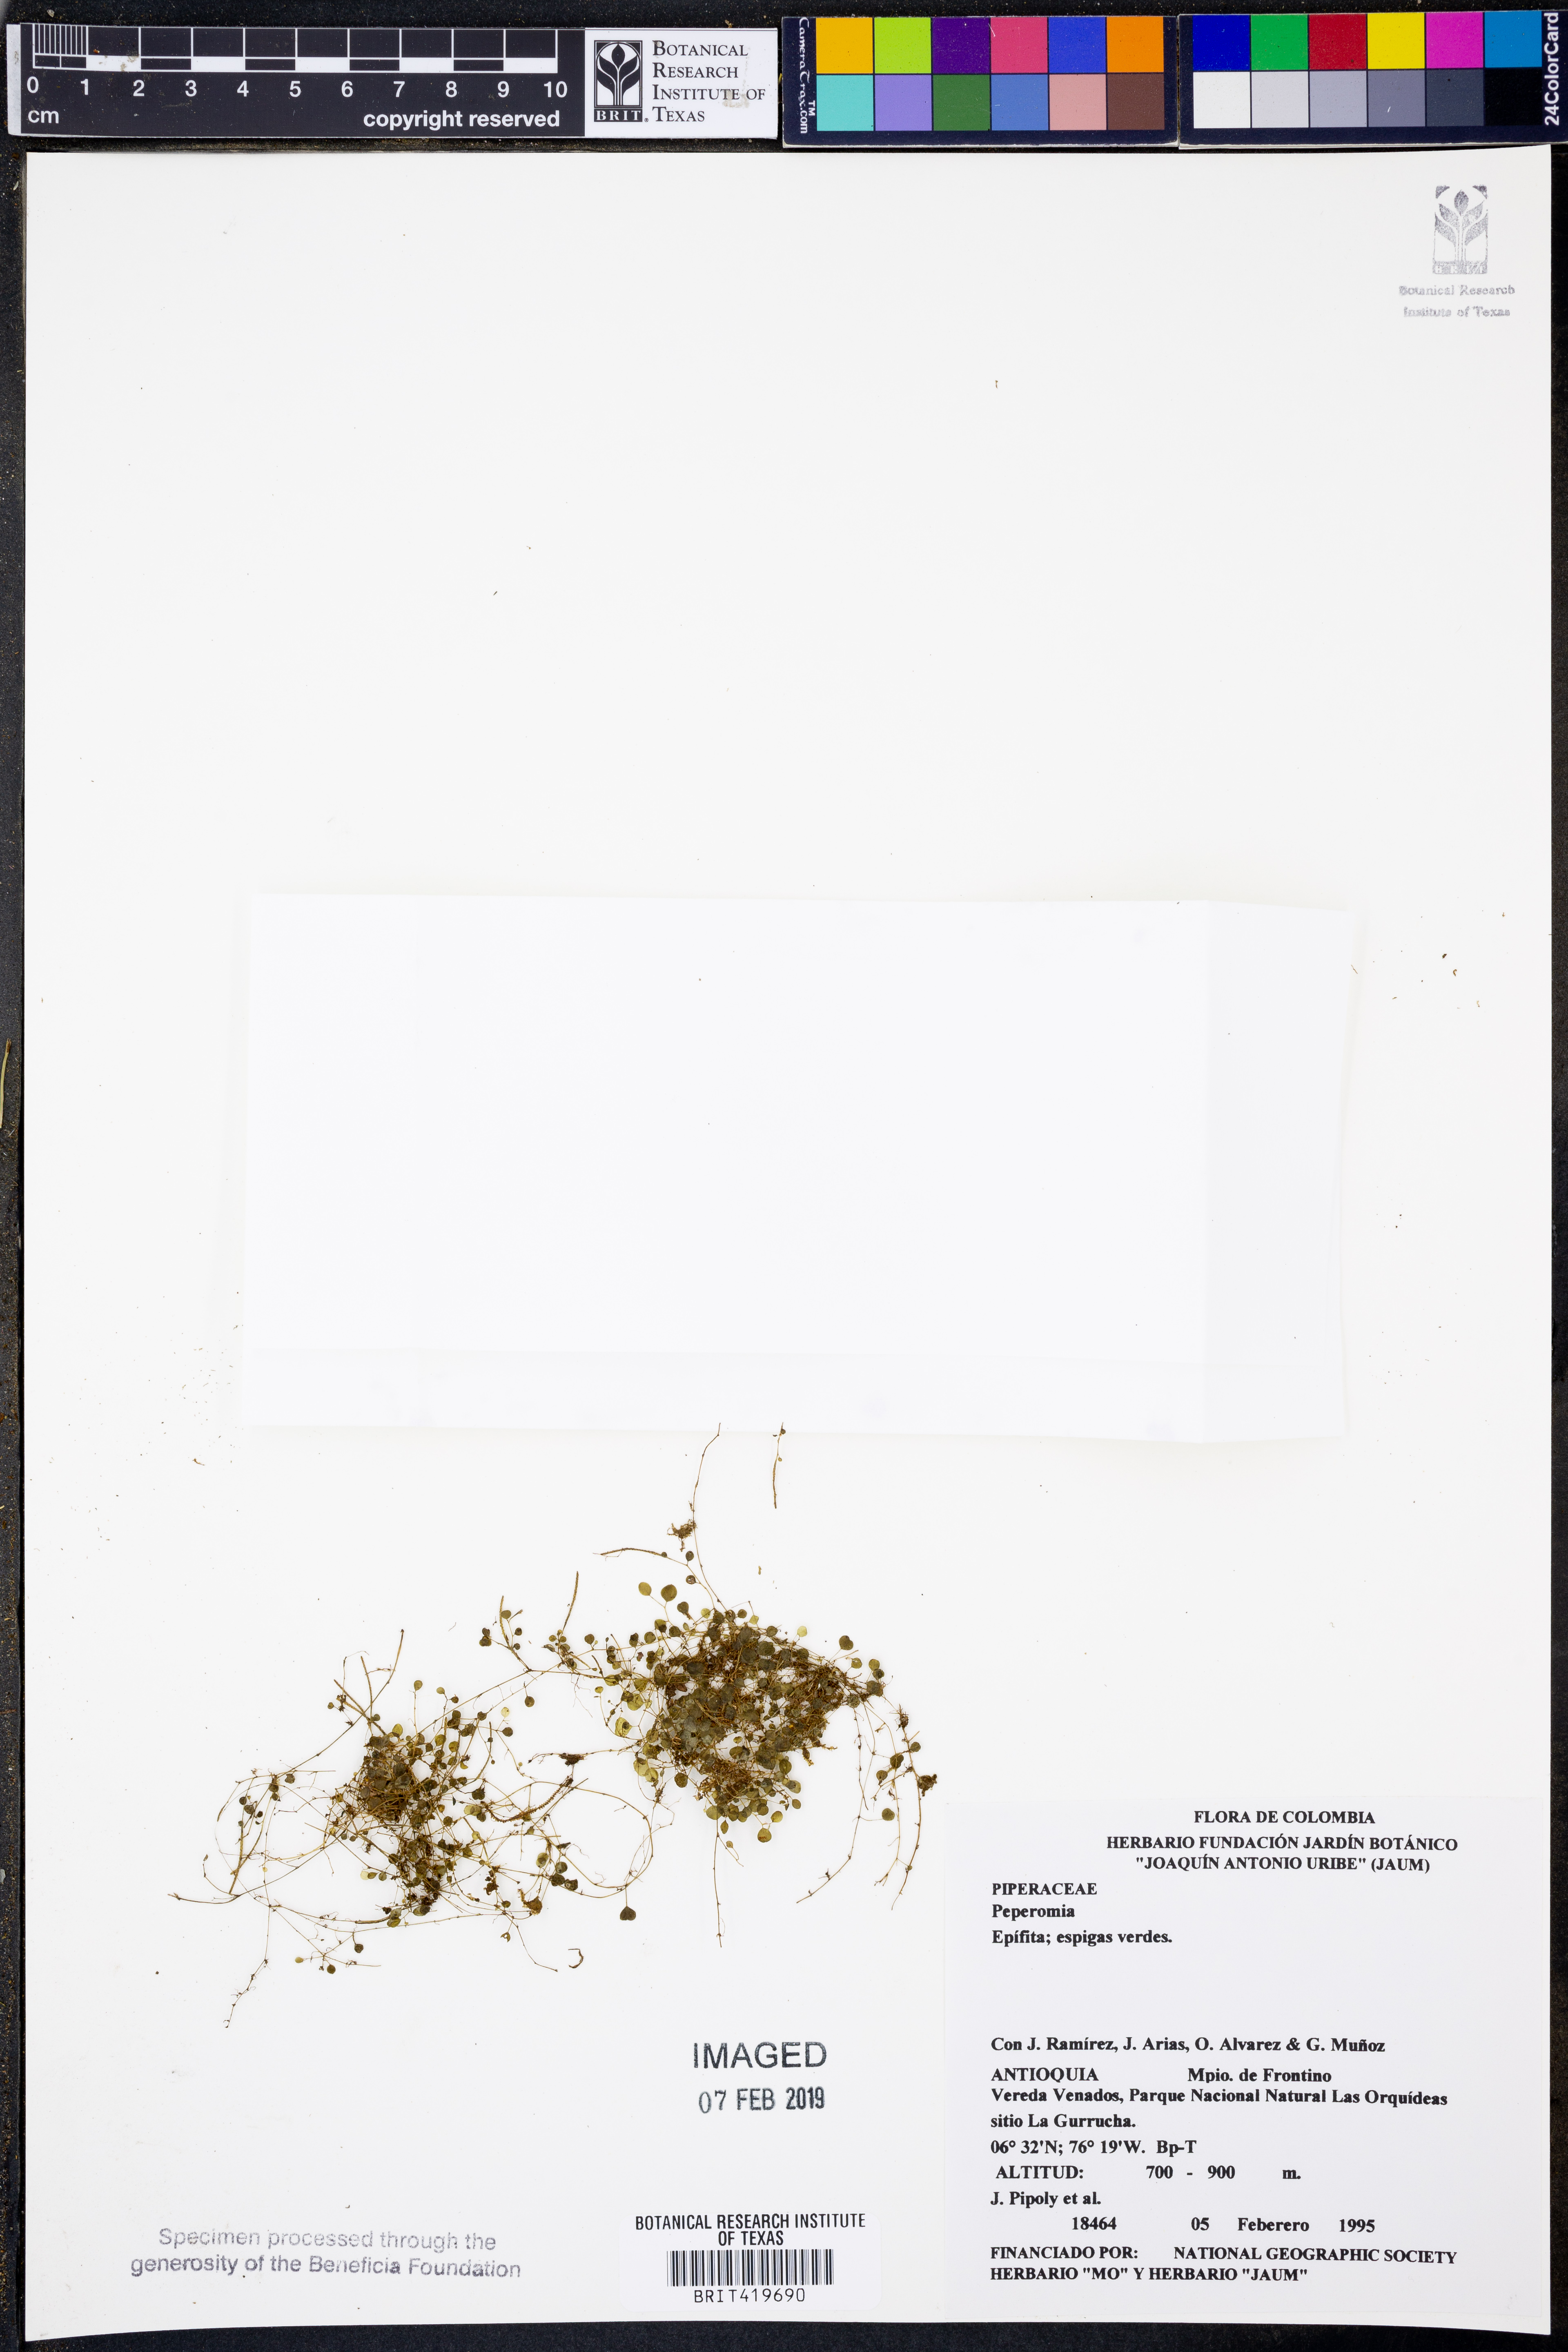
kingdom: Plantae
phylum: Tracheophyta
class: Magnoliopsida
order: Piperales
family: Piperaceae
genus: Peperomia
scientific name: Peperomia
